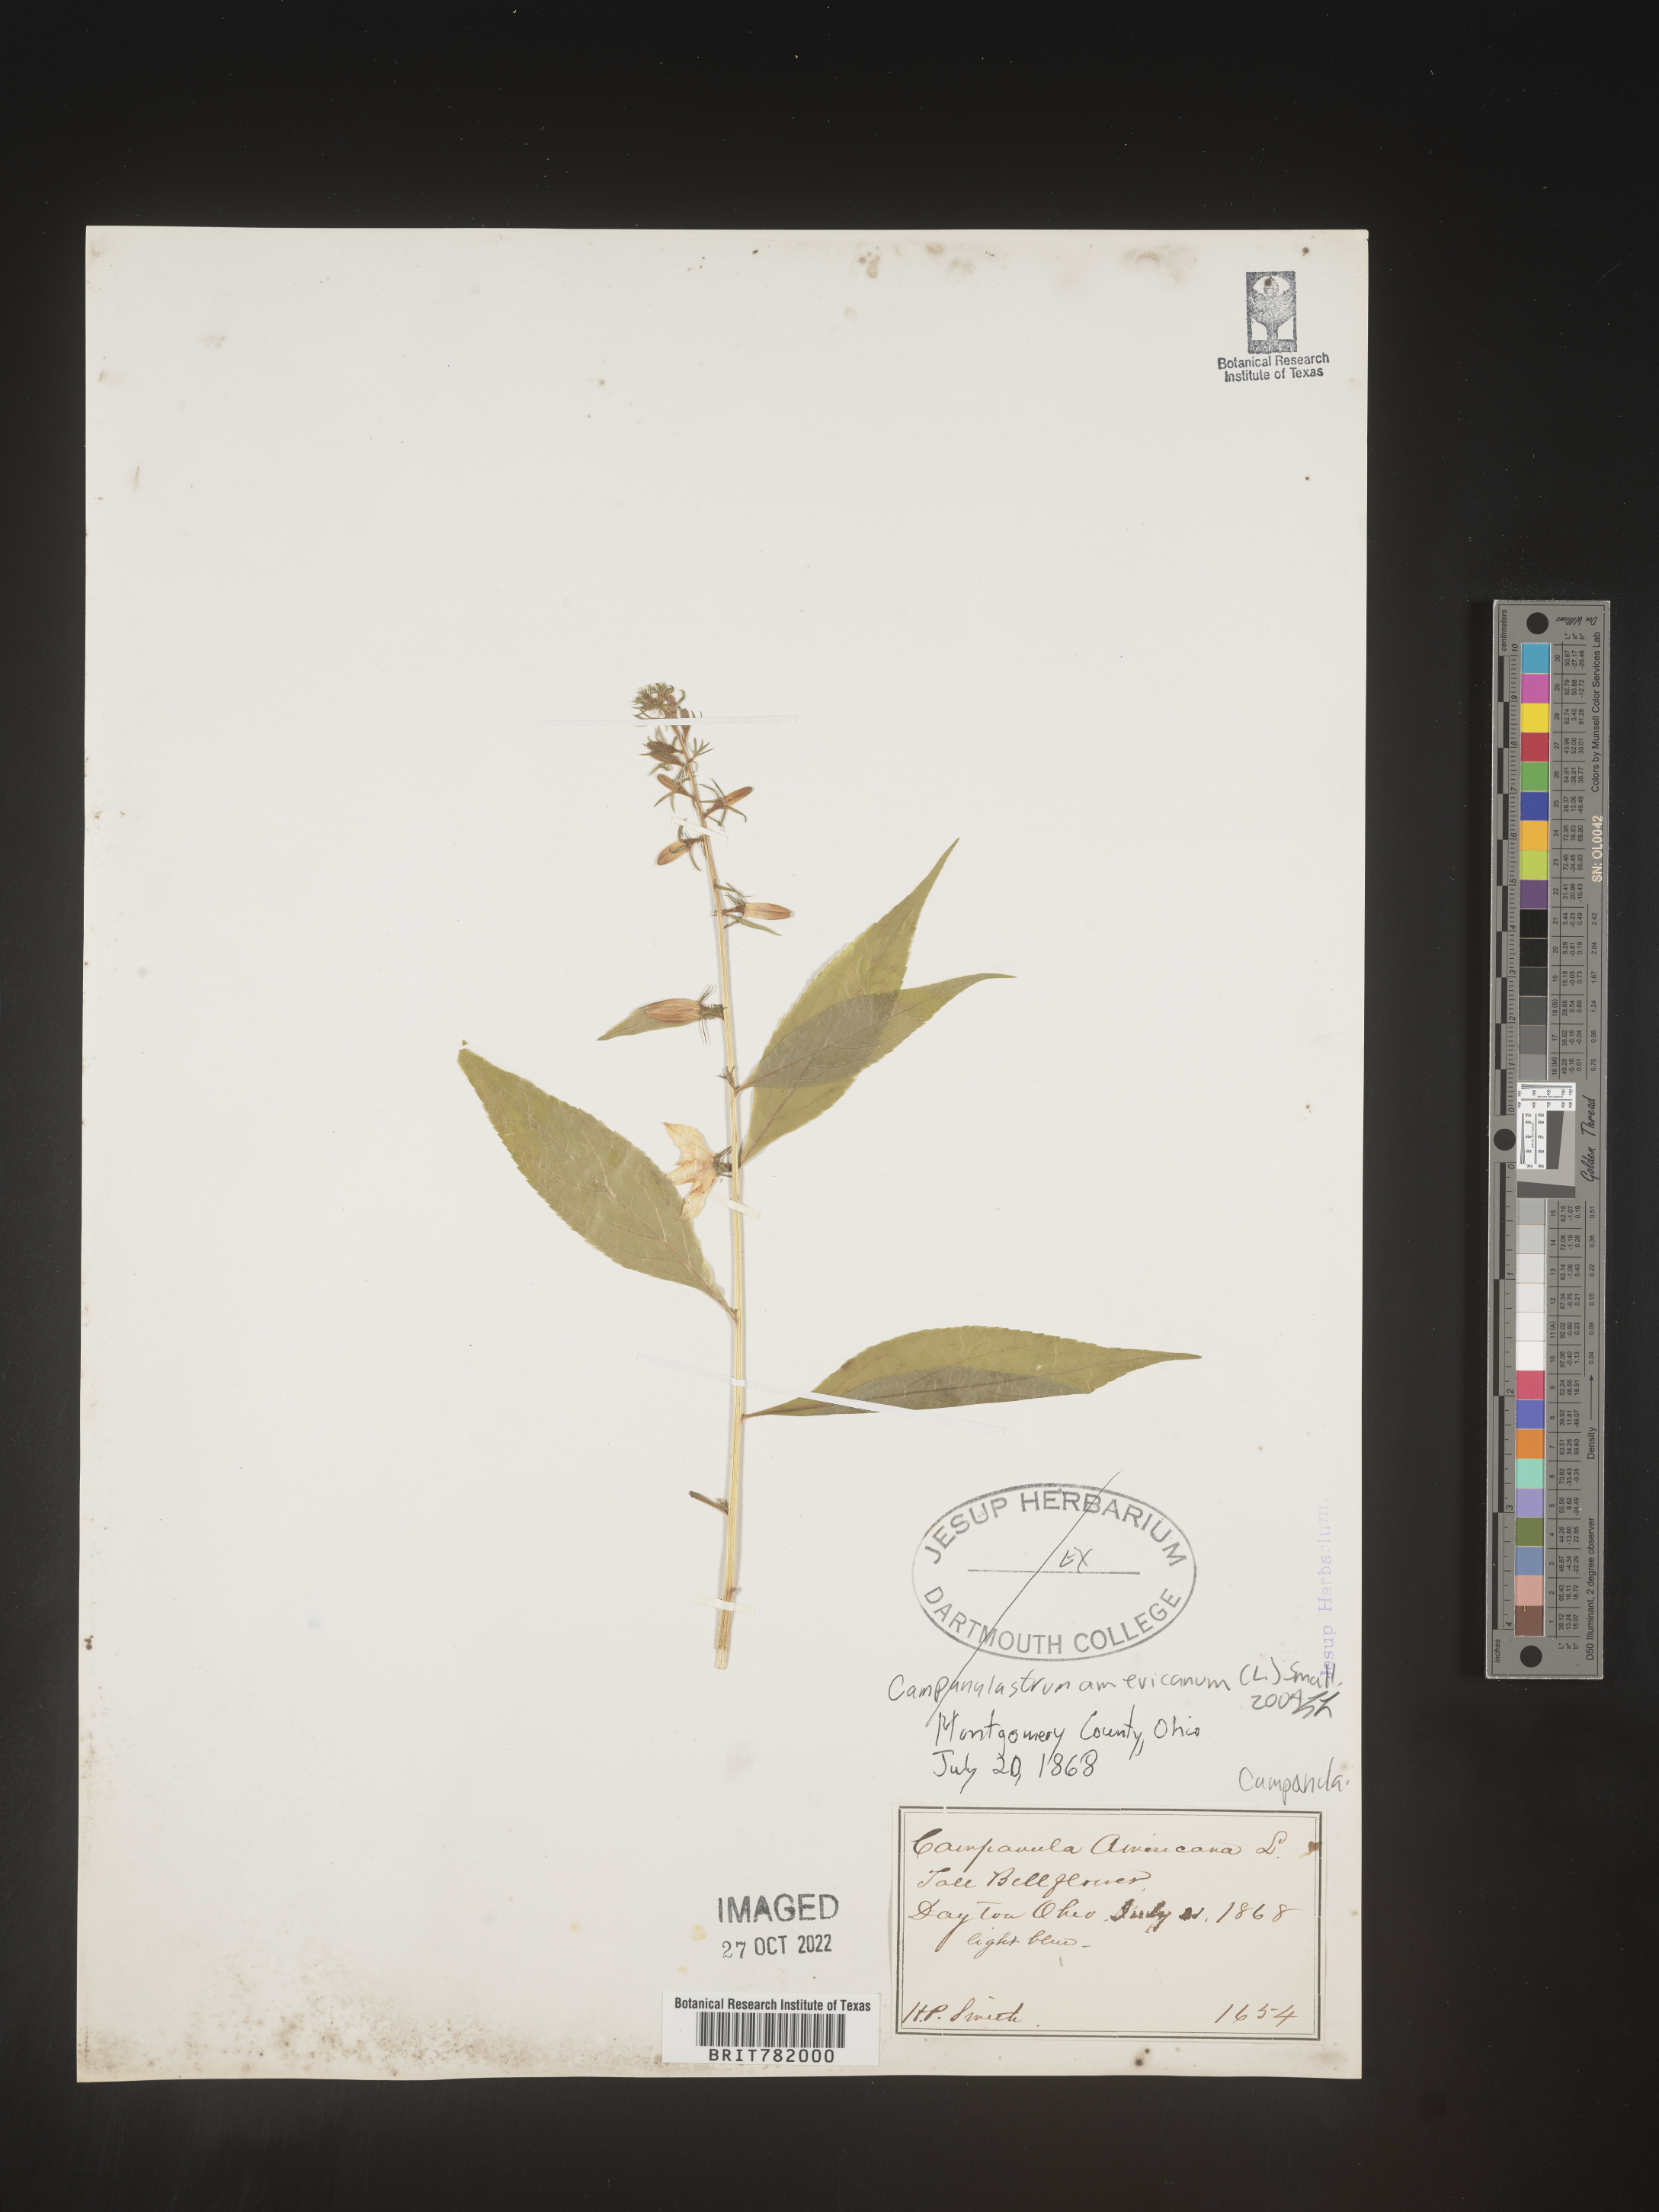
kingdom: Plantae
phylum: Tracheophyta
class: Magnoliopsida
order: Asterales
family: Campanulaceae
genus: Campanulastrum
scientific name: Campanulastrum
